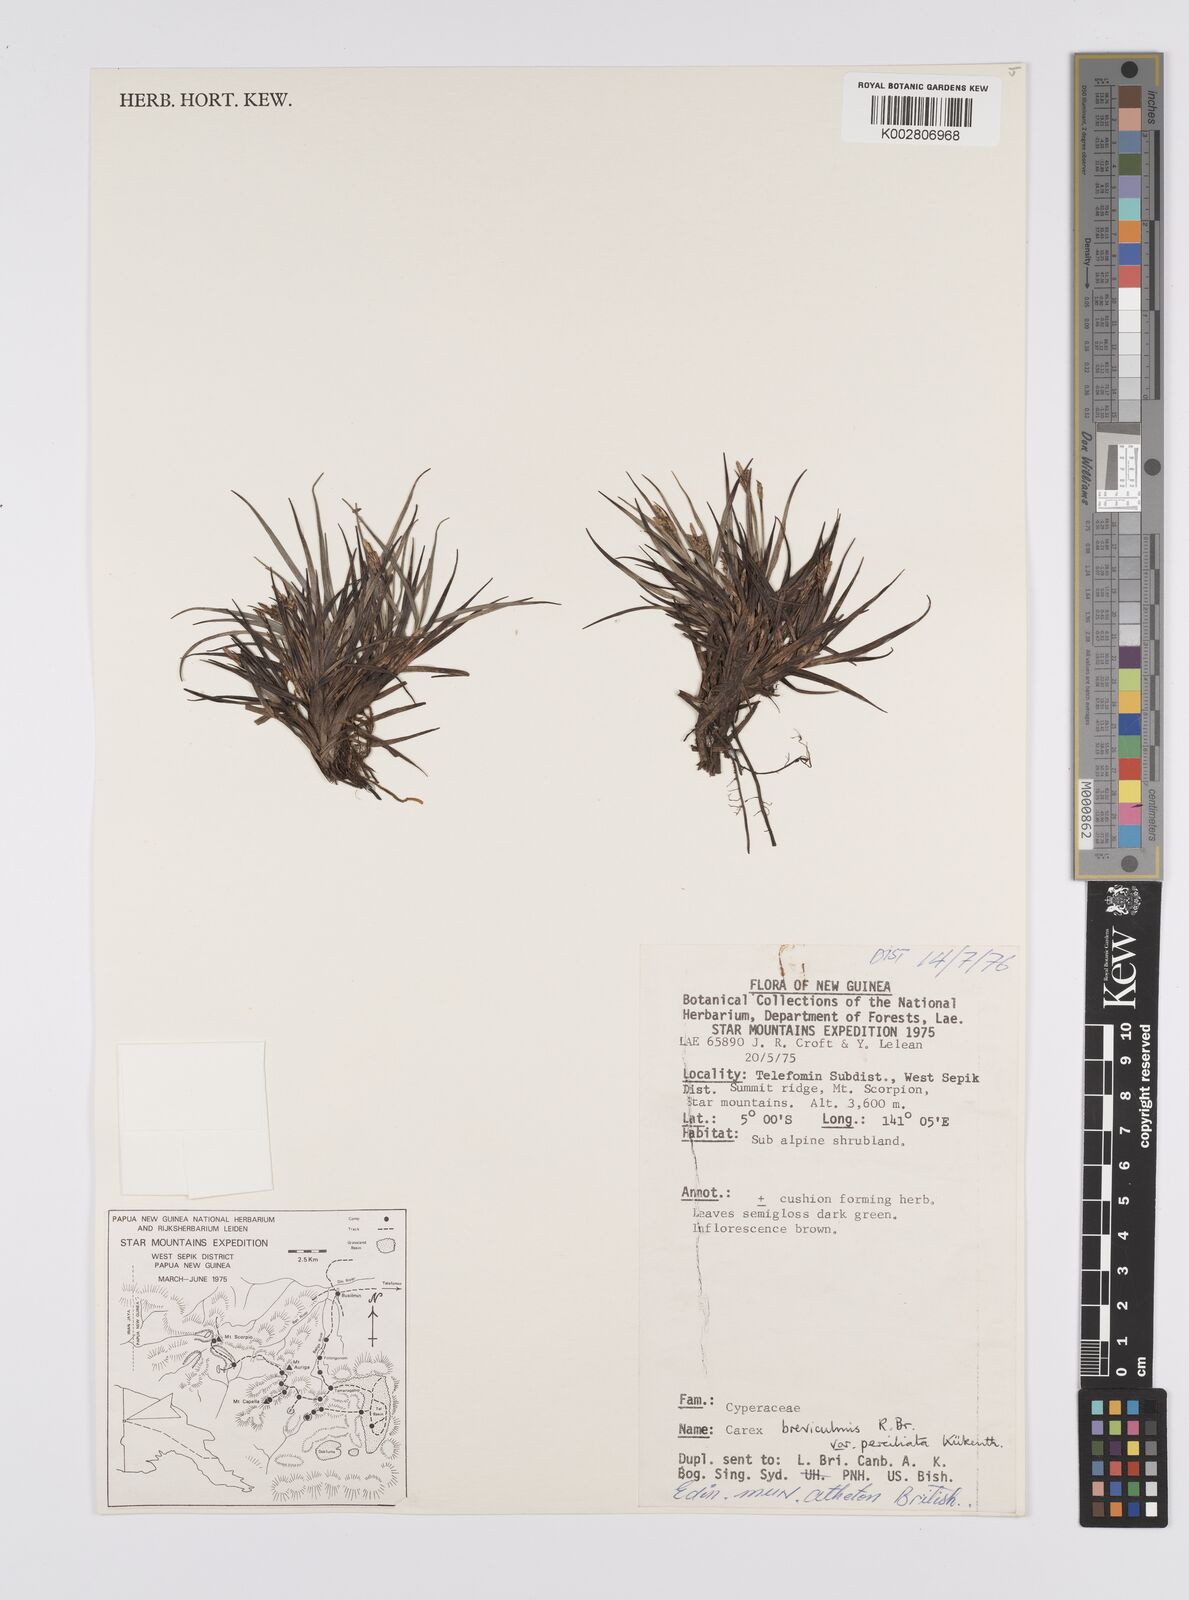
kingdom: Plantae
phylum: Tracheophyta
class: Liliopsida
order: Poales
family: Cyperaceae
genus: Carex
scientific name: Carex breviculmis
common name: Asian shortstem sedge
